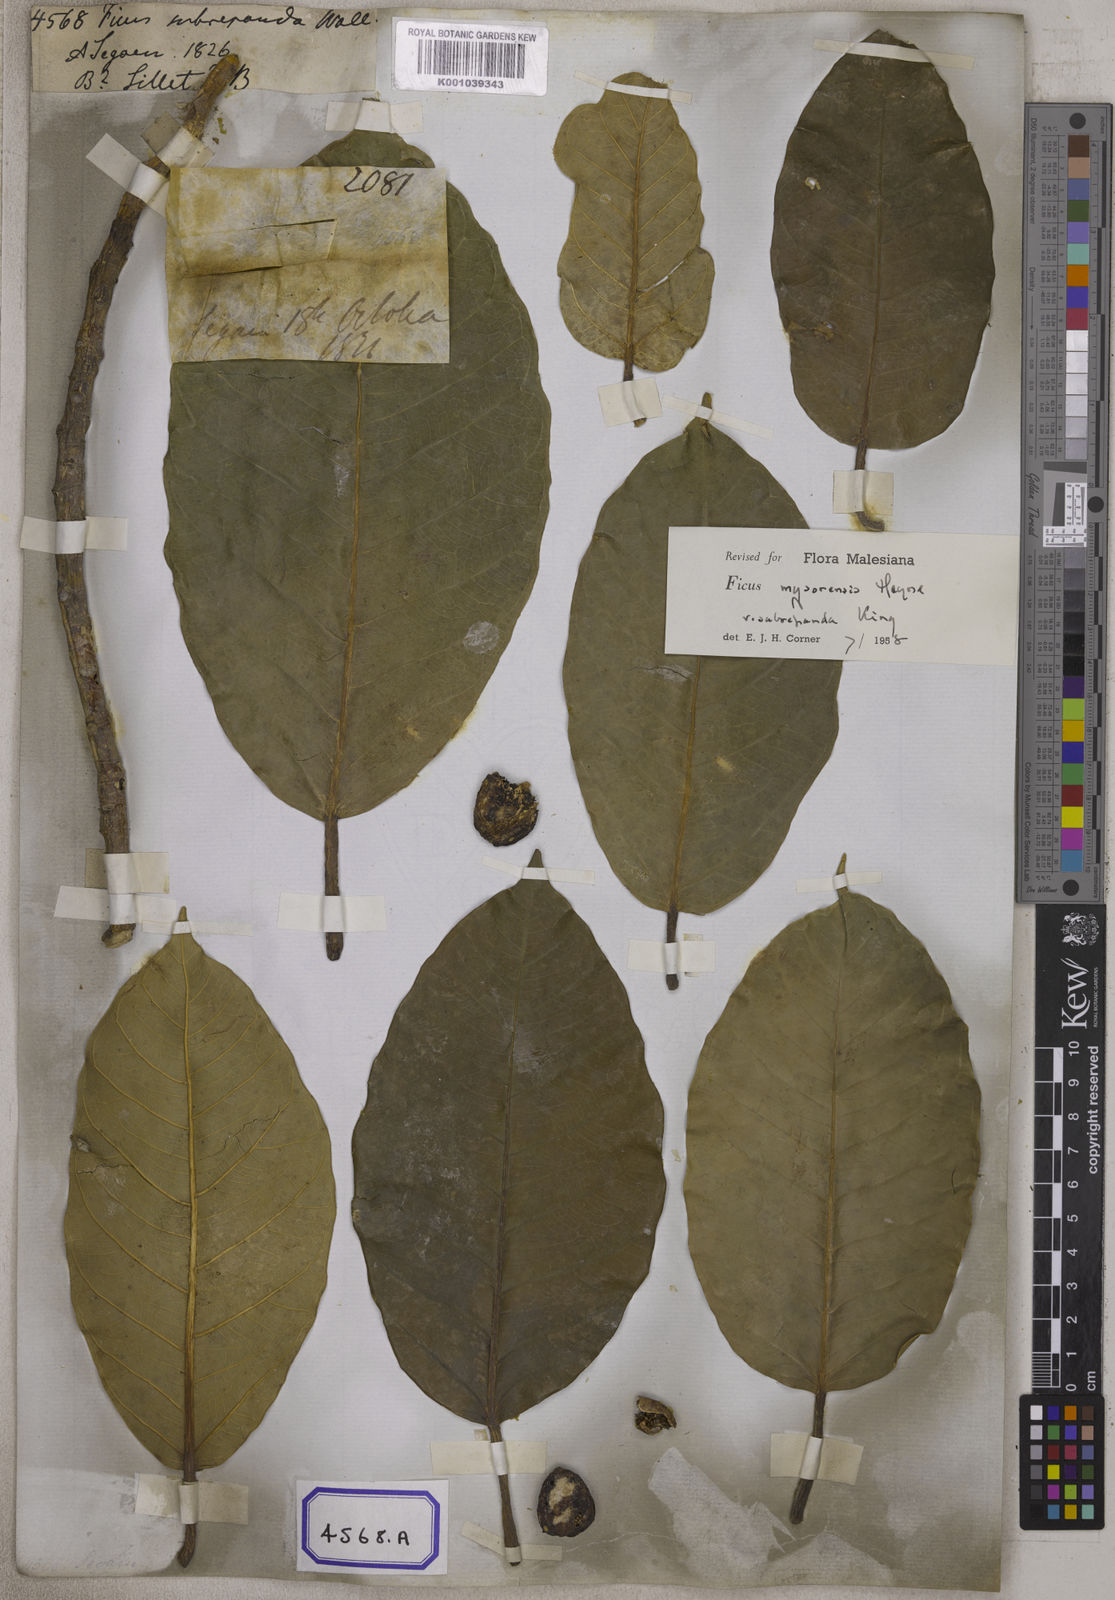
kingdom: Plantae
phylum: Tracheophyta
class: Magnoliopsida
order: Rosales
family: Moraceae
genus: Ficus
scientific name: Ficus
